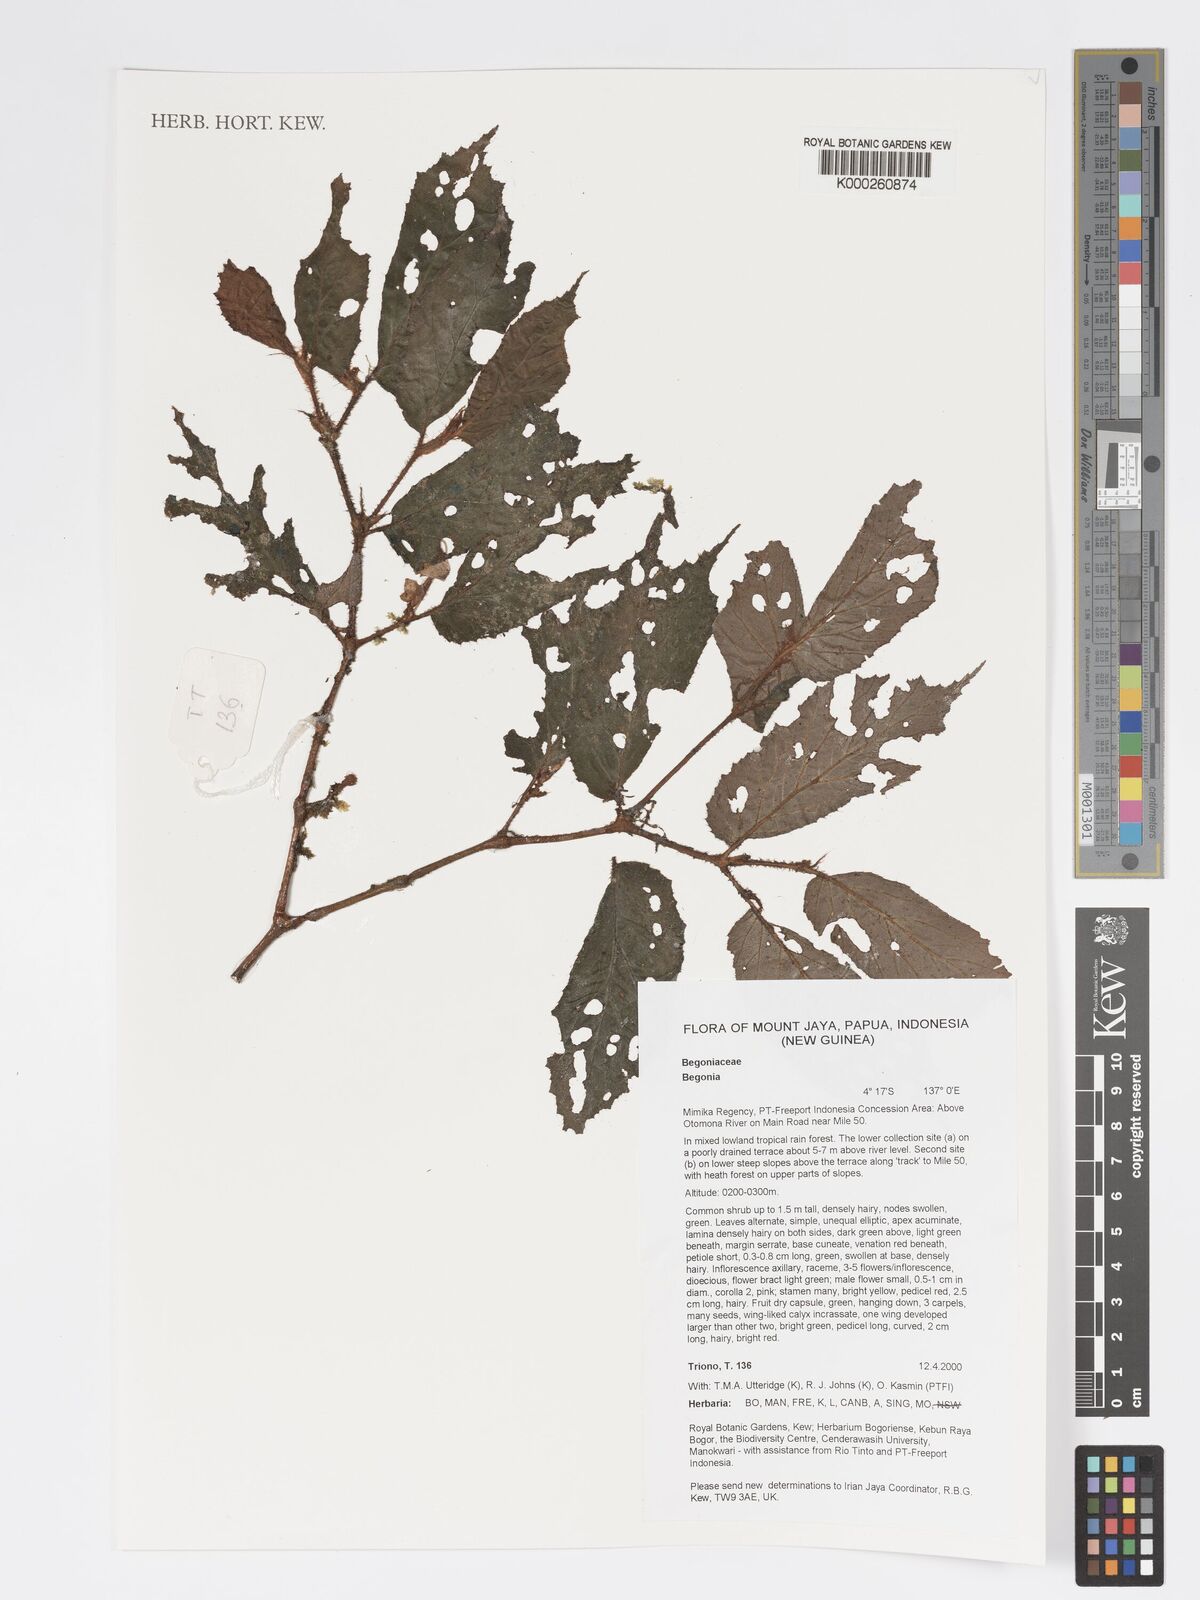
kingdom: Plantae
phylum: Tracheophyta
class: Magnoliopsida
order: Cucurbitales
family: Begoniaceae
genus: Begonia
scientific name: Begonia
